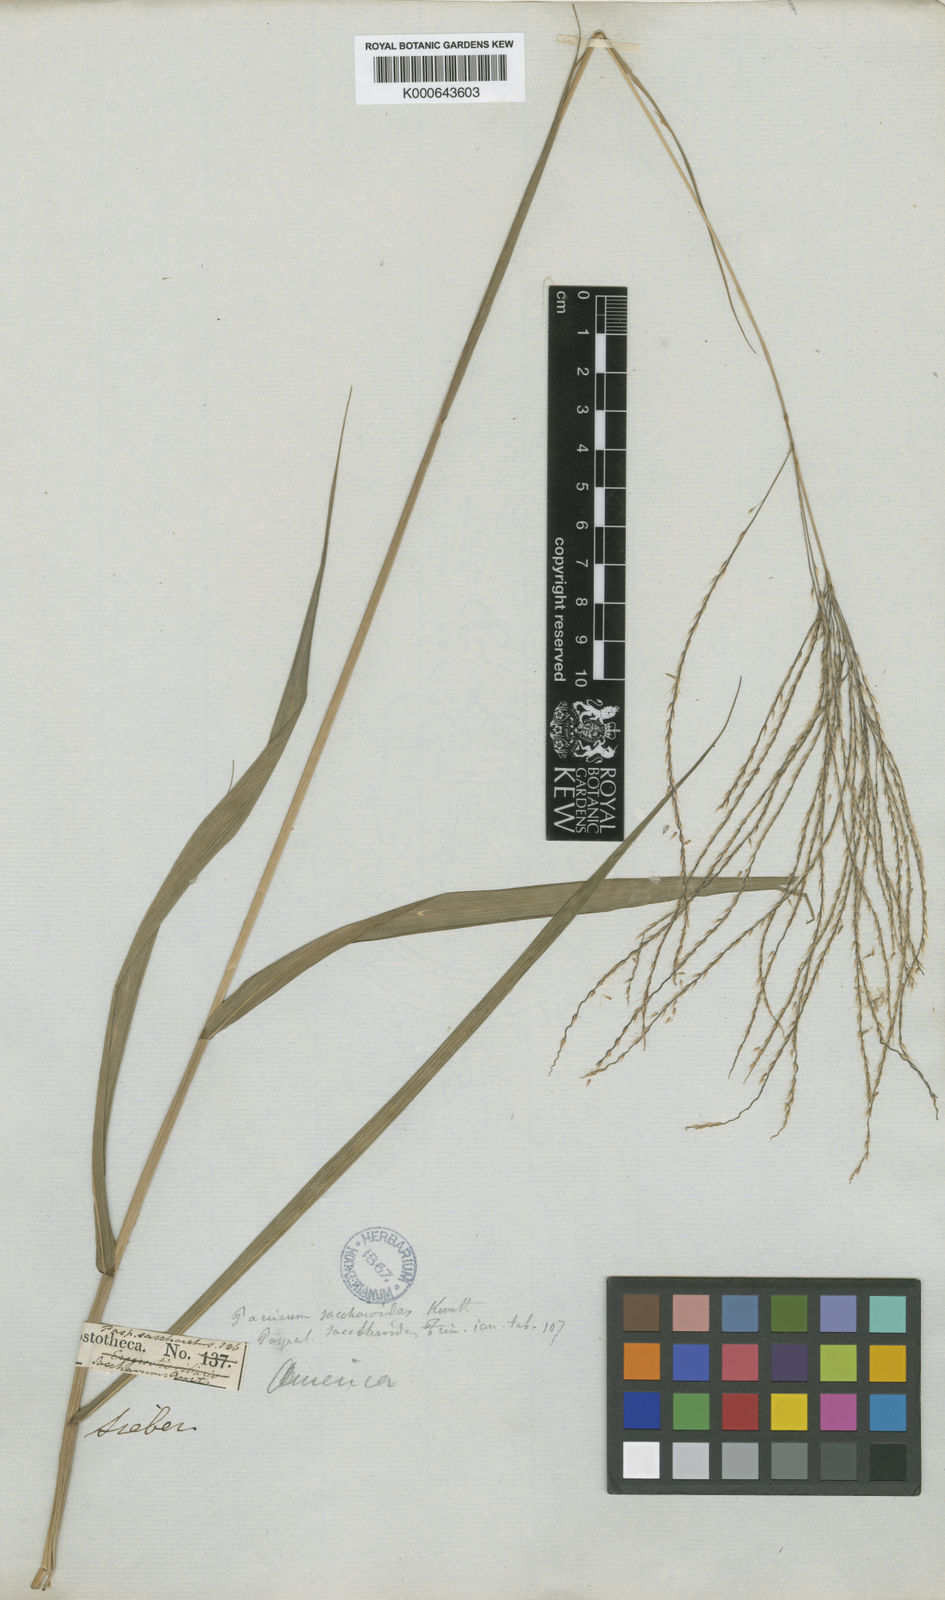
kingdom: Plantae
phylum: Tracheophyta
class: Liliopsida
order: Poales
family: Poaceae
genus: Paspalum
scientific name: Paspalum saccharoides
